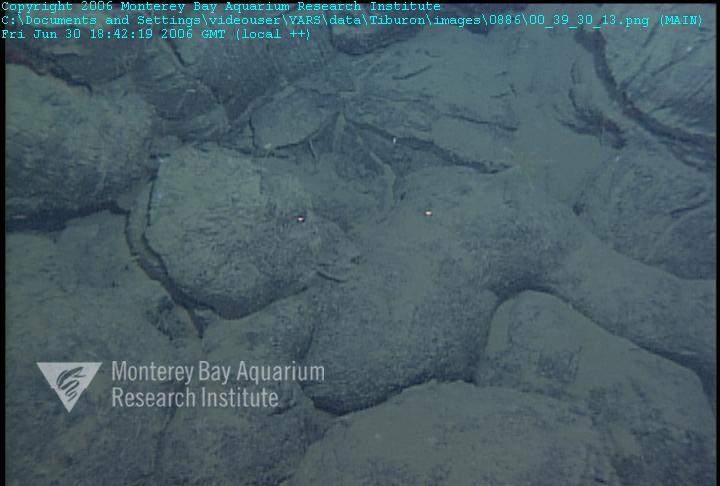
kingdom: Animalia
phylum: Porifera
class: Hexactinellida
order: Lyssacinosida
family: Rossellidae
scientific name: Rossellidae
